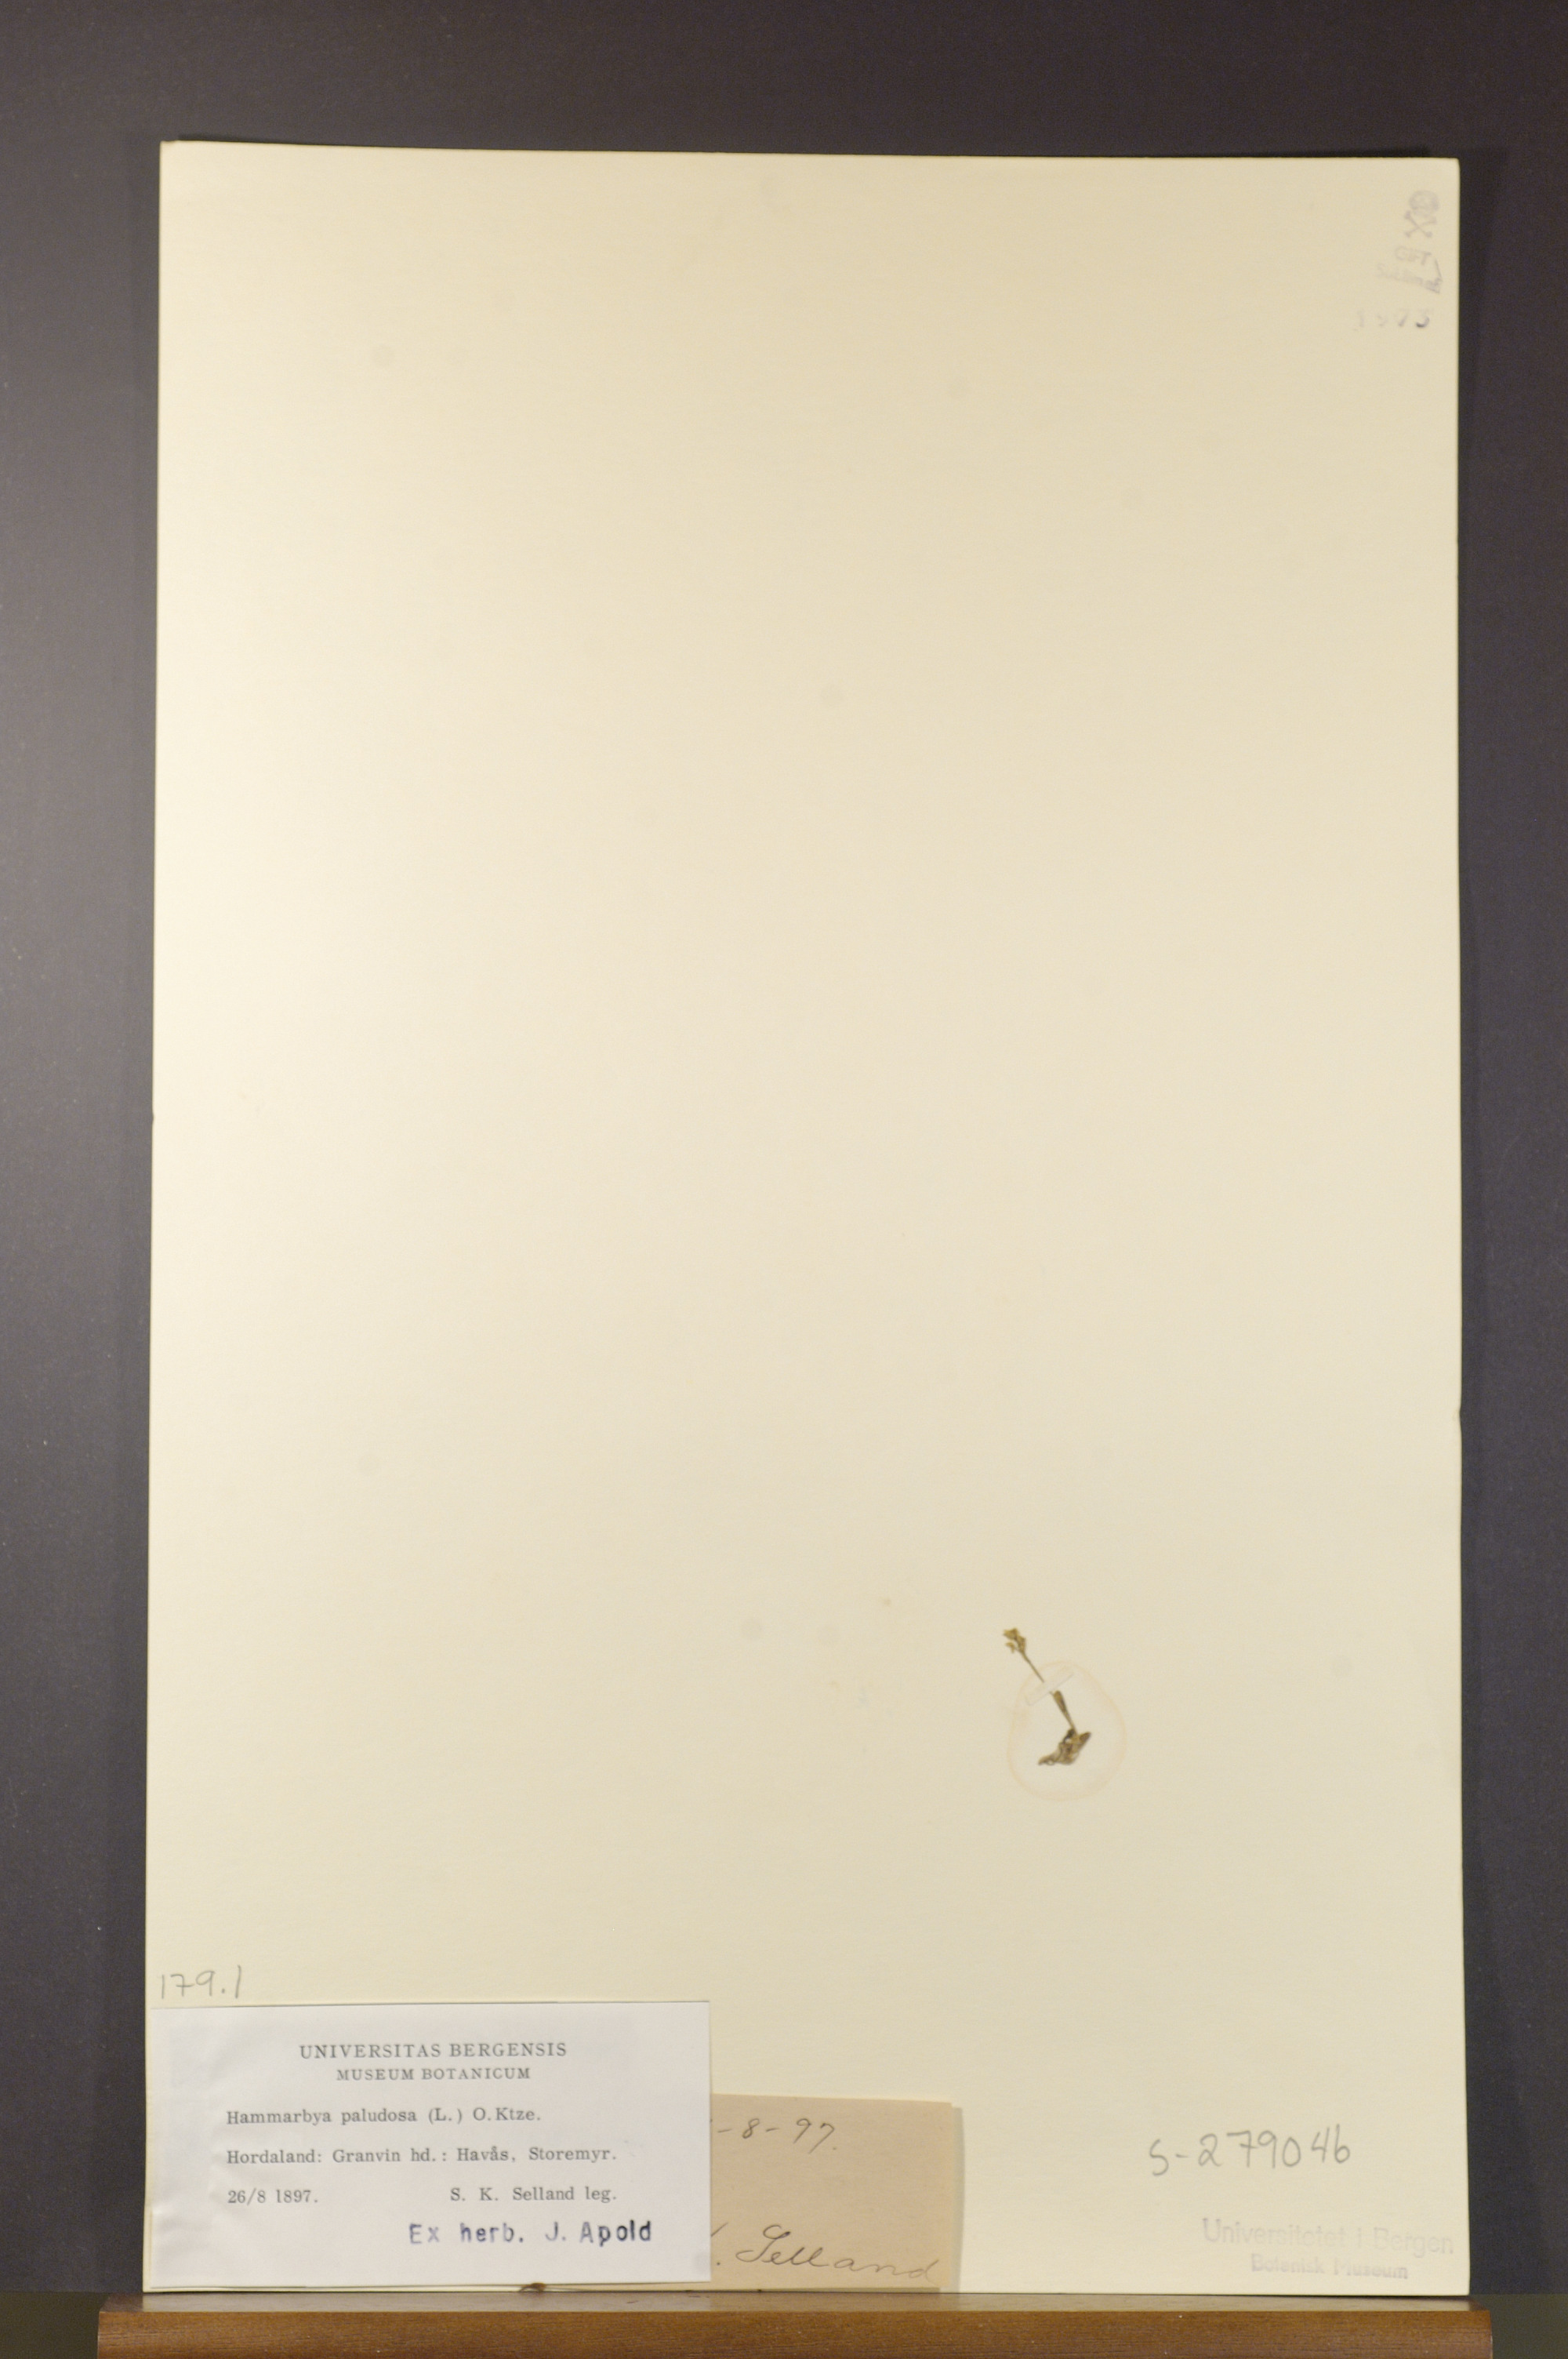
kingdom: Plantae
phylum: Tracheophyta
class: Liliopsida
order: Asparagales
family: Orchidaceae
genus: Hammarbya
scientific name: Hammarbya paludosa
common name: Bog orchid
